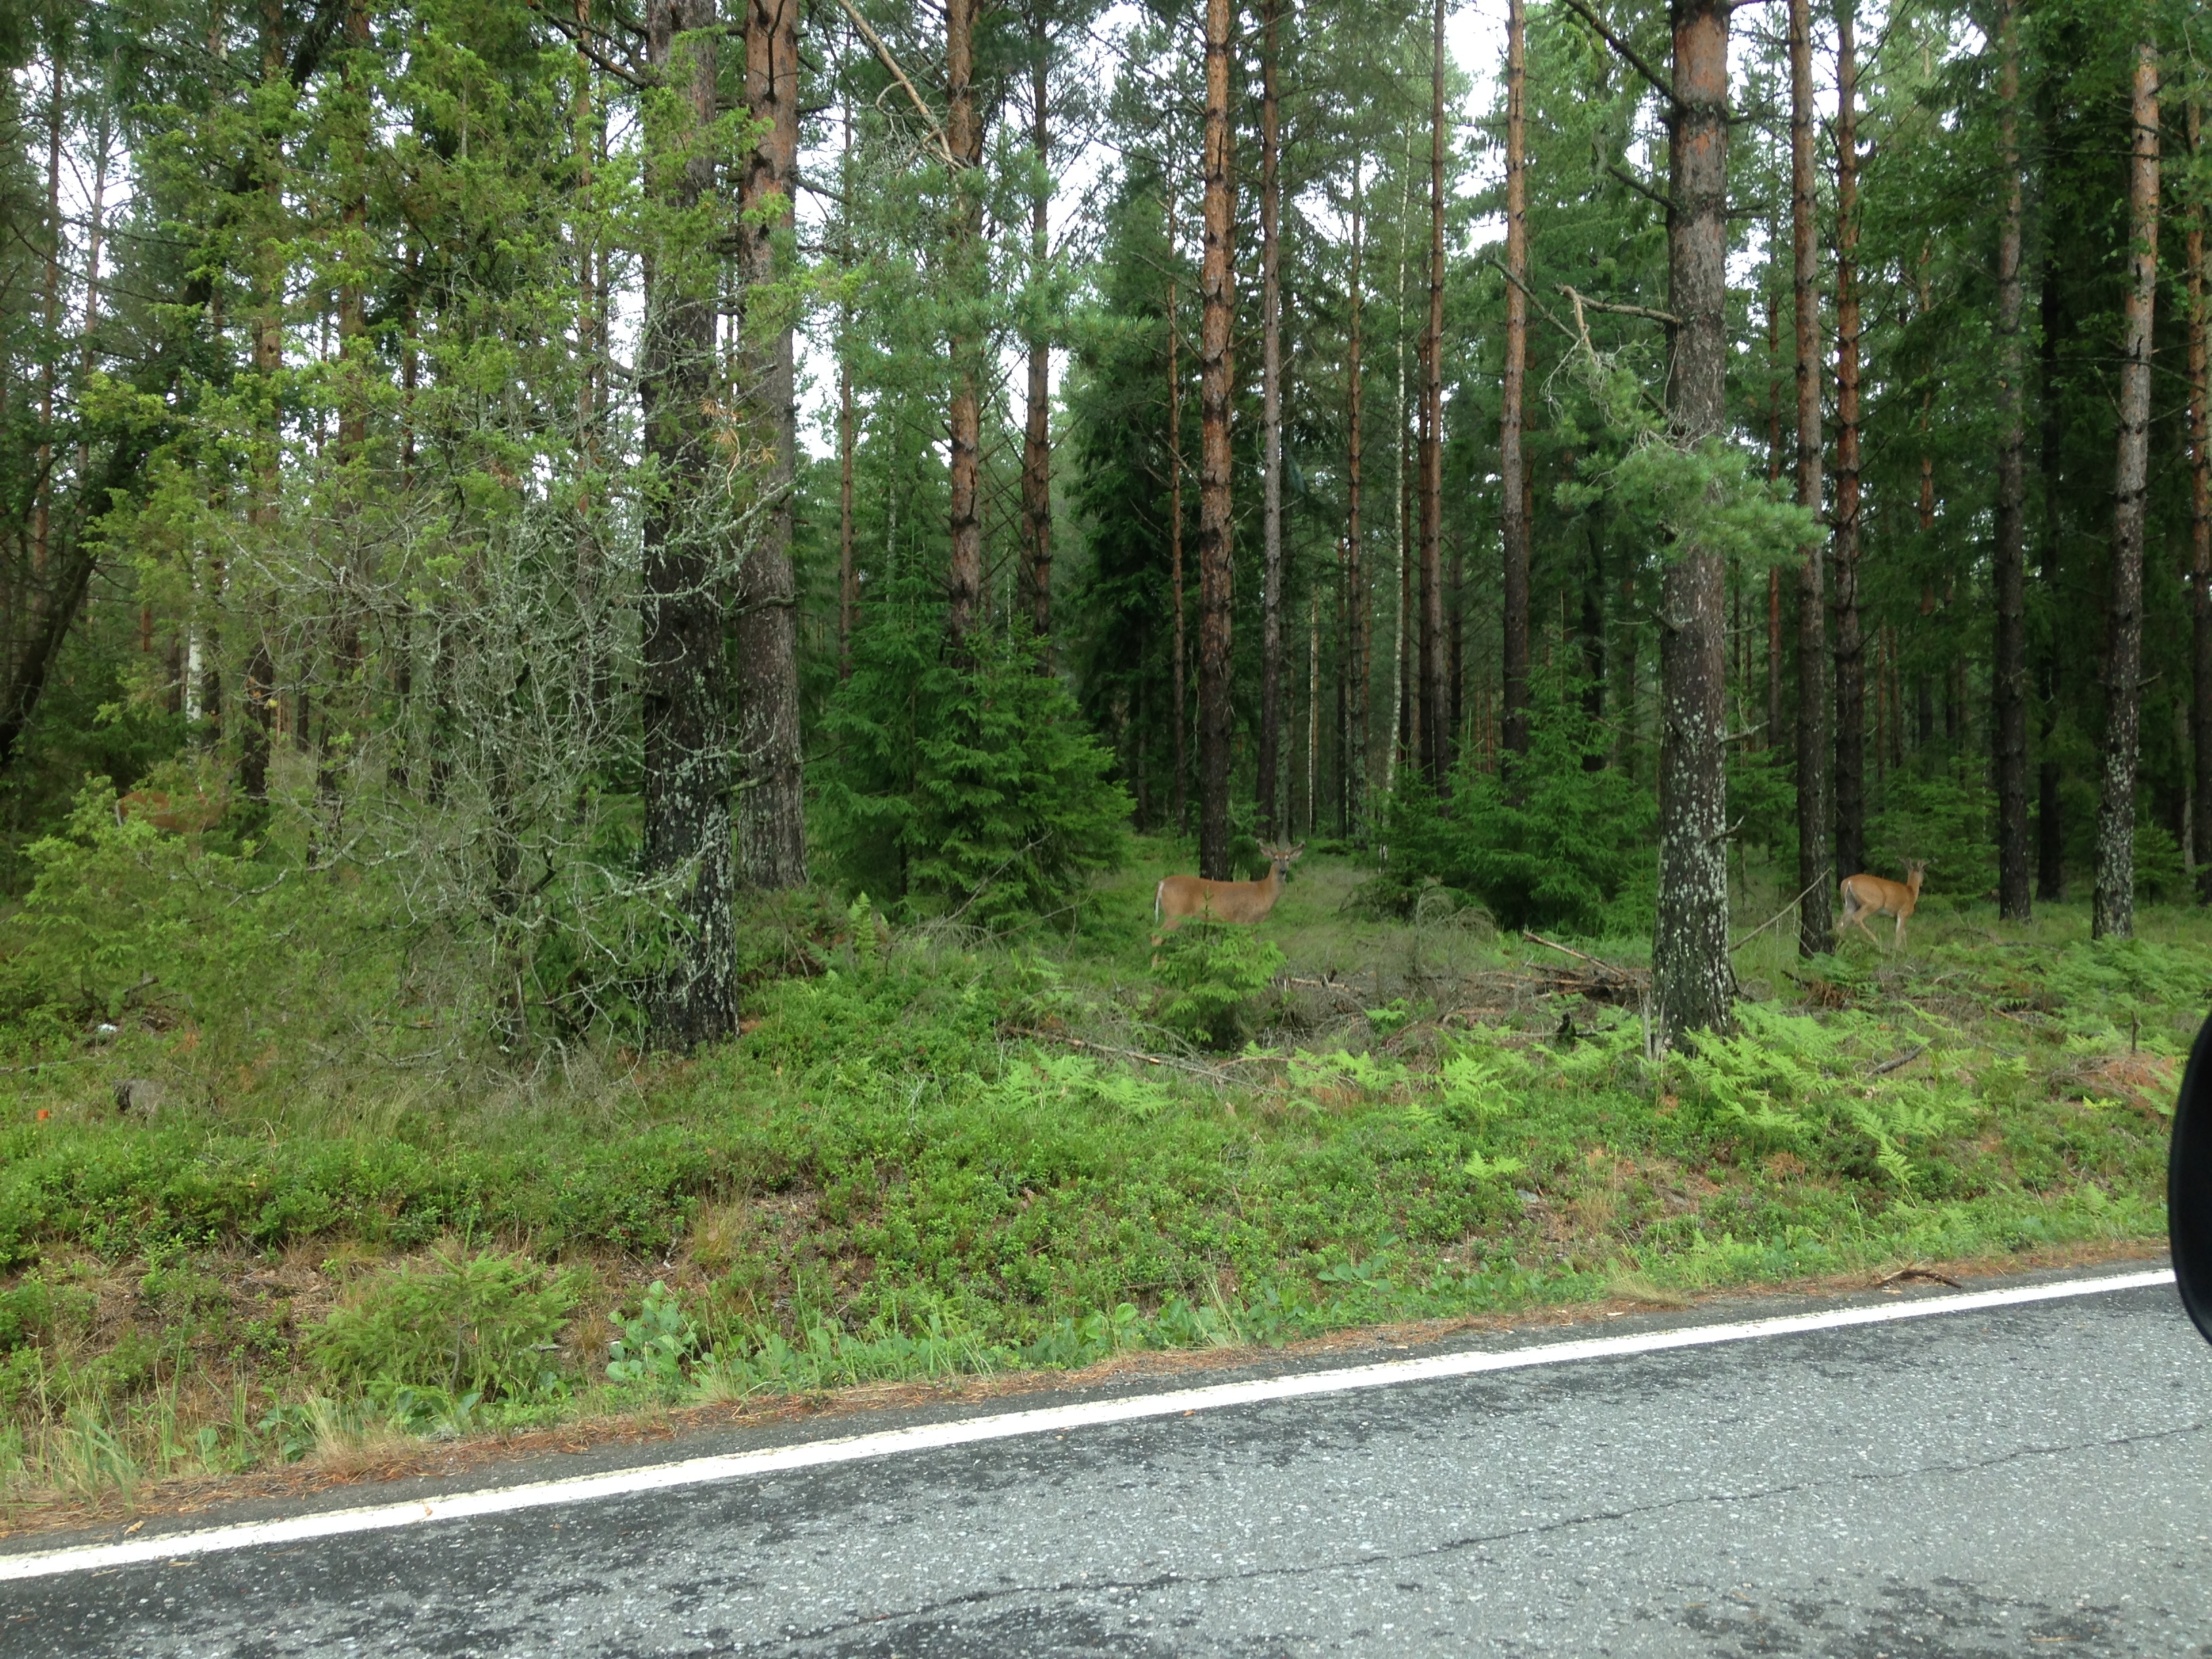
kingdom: Animalia
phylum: Chordata
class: Mammalia
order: Artiodactyla
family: Cervidae
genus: Odocoileus
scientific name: Odocoileus virginianus
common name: White-tailed deer
